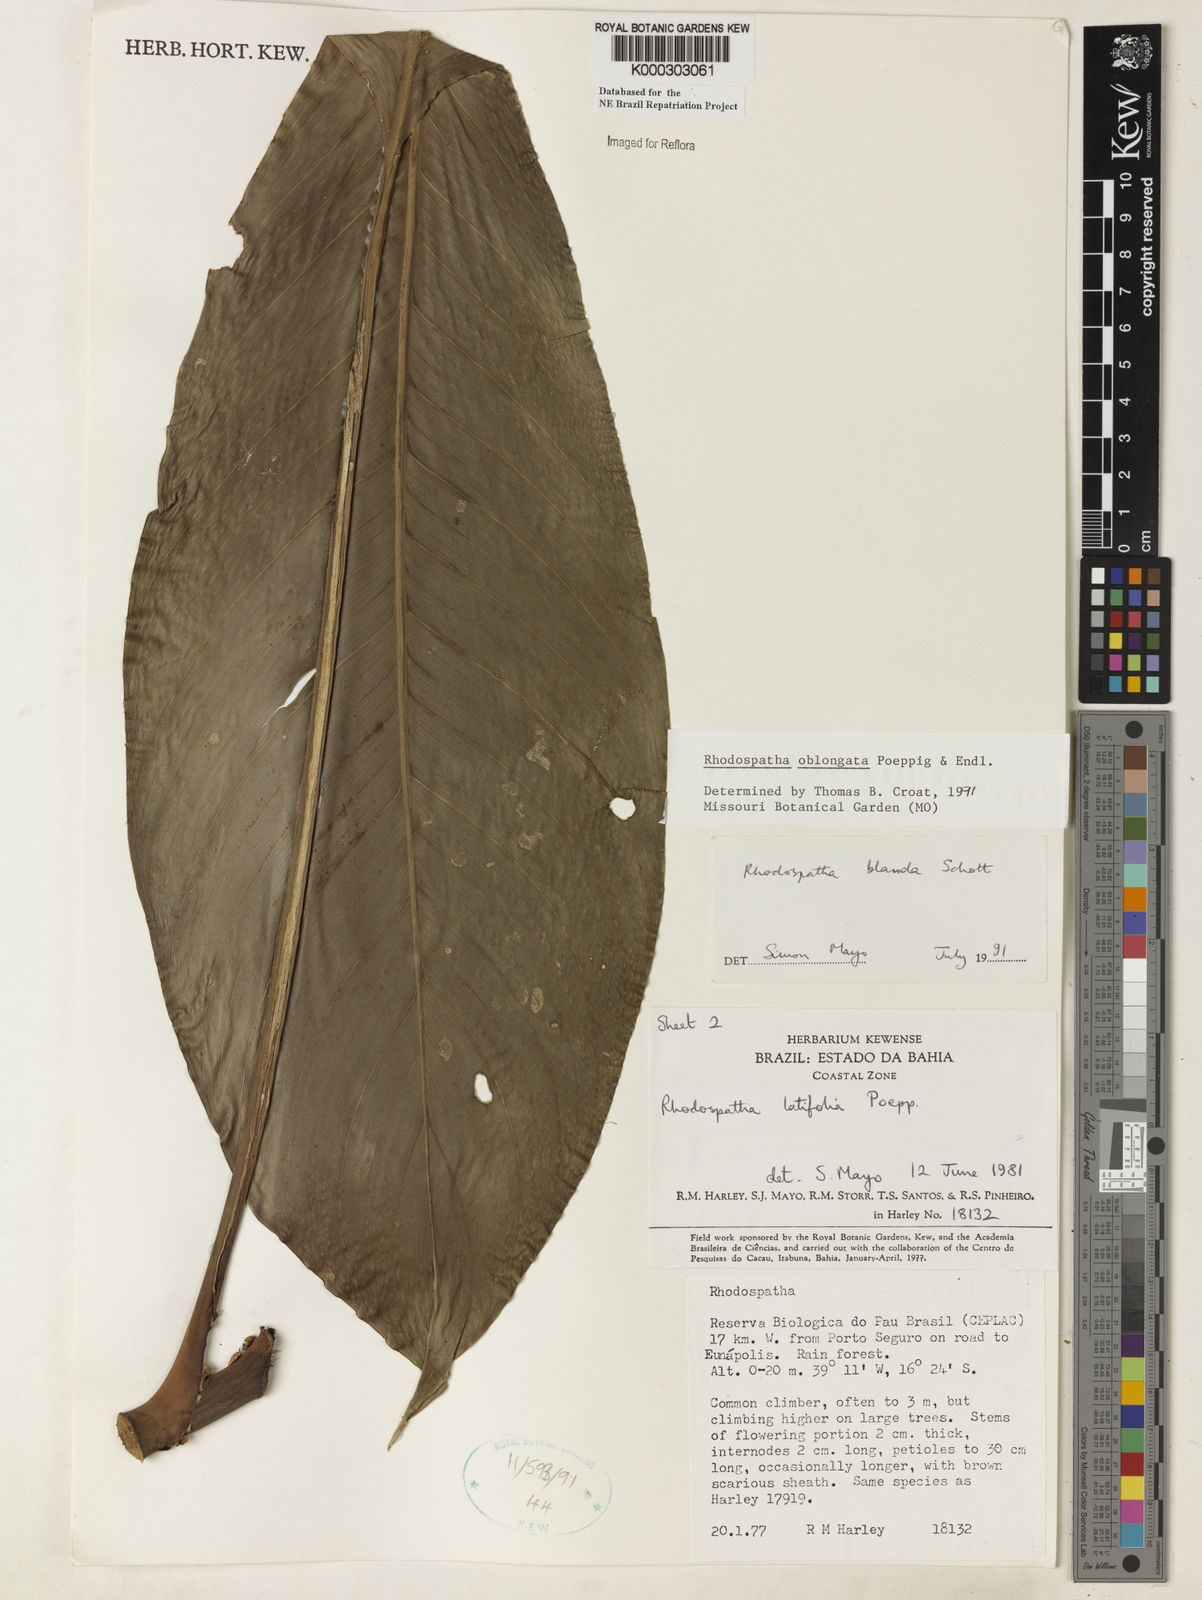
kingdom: Plantae
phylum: Tracheophyta
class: Liliopsida
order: Alismatales
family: Araceae
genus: Rhodospatha
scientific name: Rhodospatha oblongata
